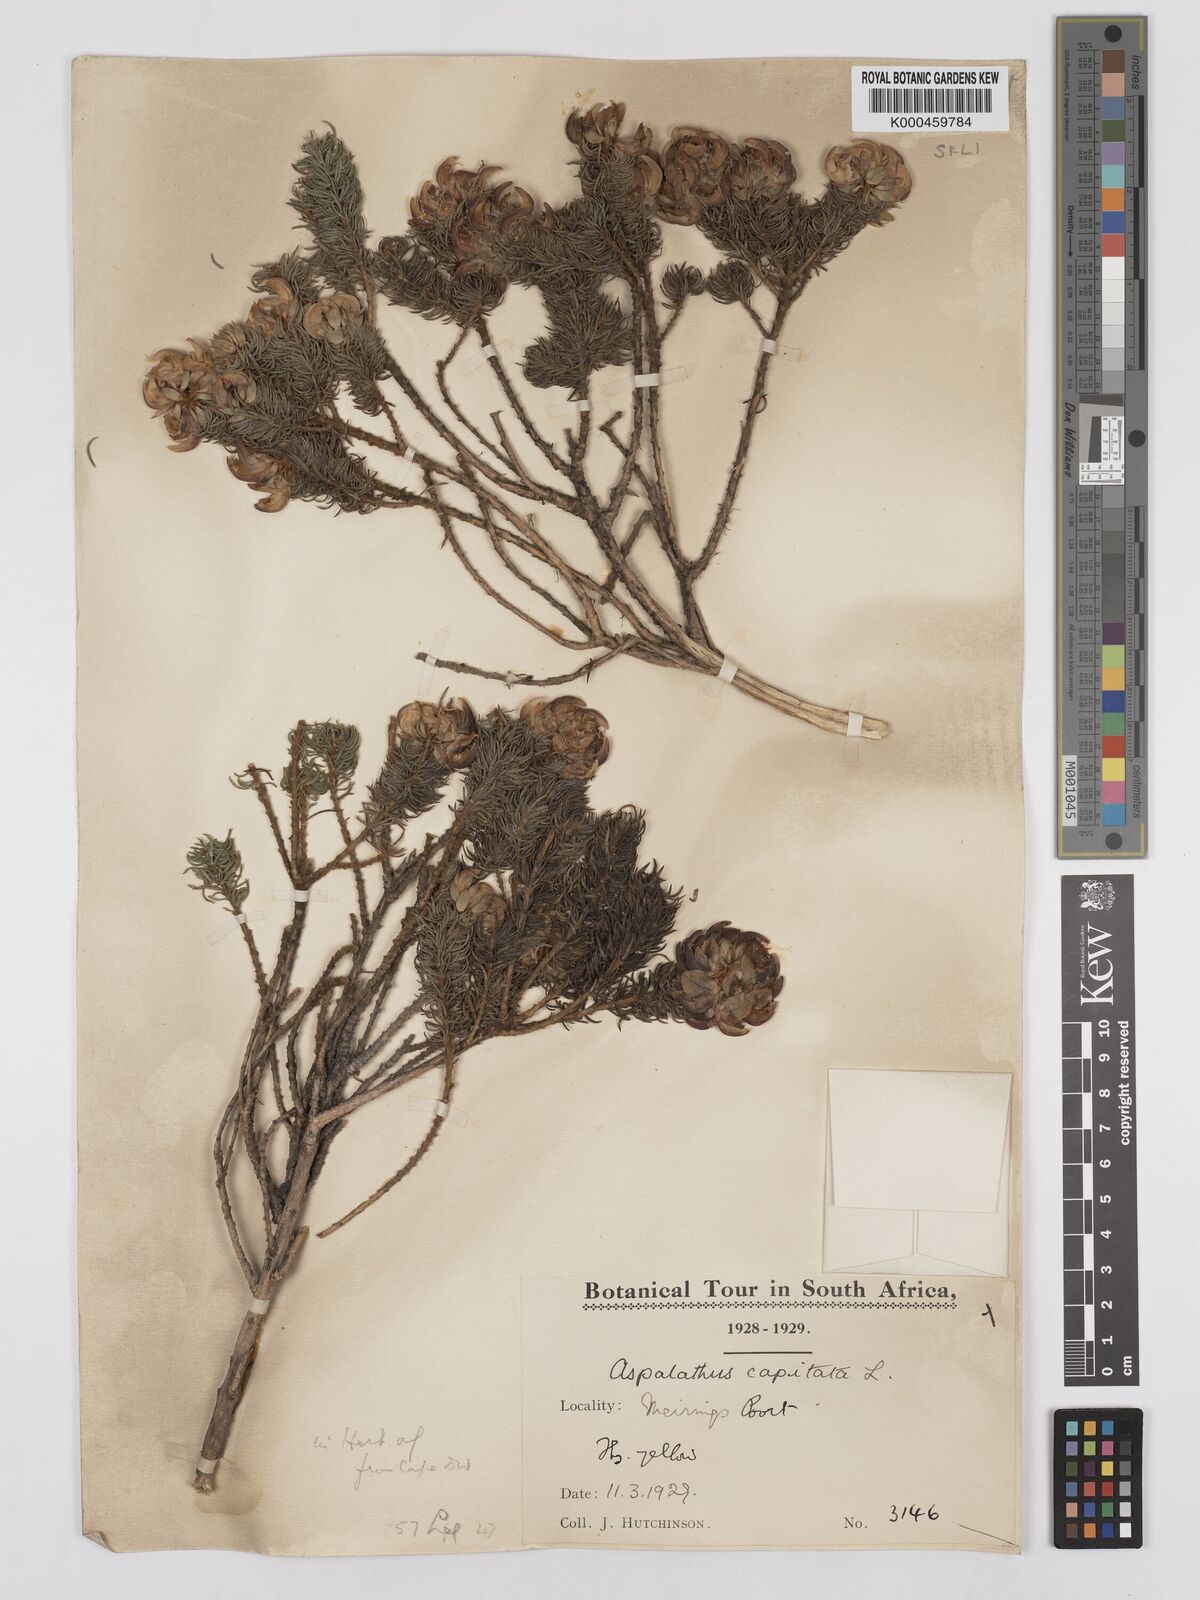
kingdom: Plantae
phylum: Tracheophyta
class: Magnoliopsida
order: Fabales
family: Fabaceae
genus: Aspalathus
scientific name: Aspalathus capitata
